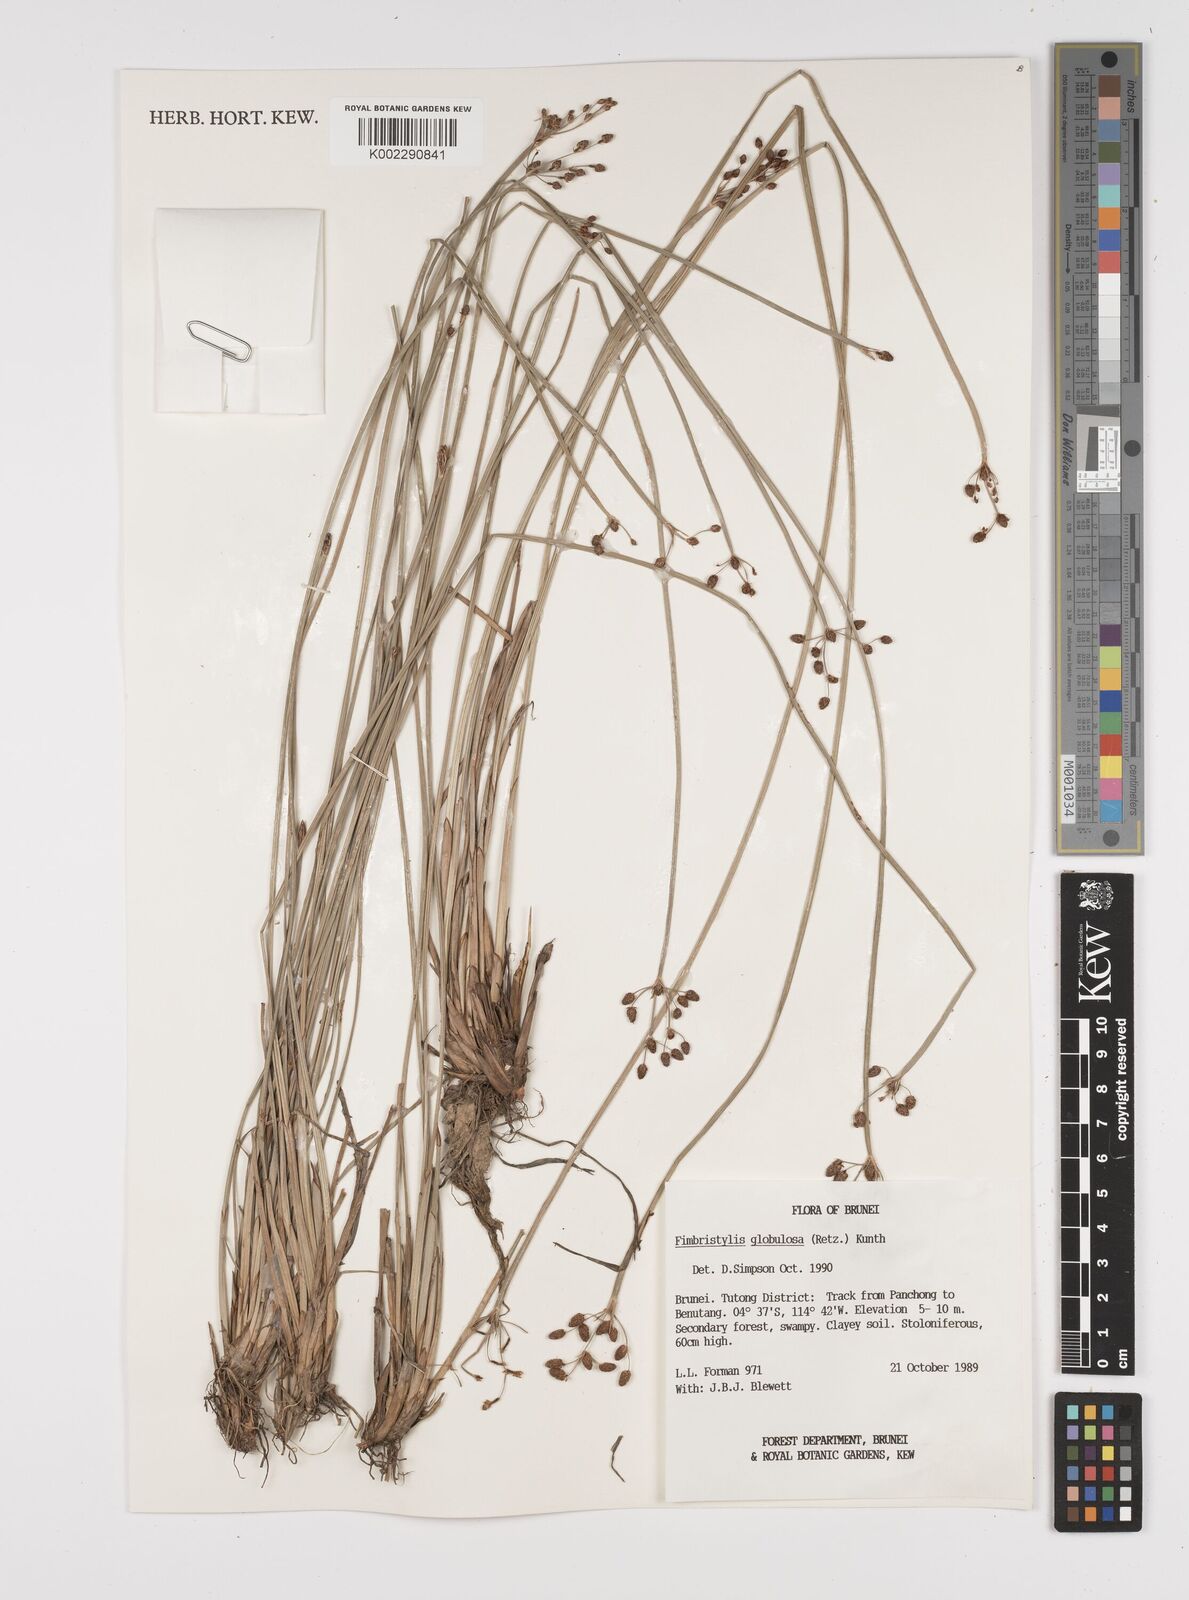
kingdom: Plantae
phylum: Tracheophyta
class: Liliopsida
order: Poales
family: Cyperaceae
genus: Fimbristylis
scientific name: Fimbristylis umbellaris
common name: Globular fimbristylis
